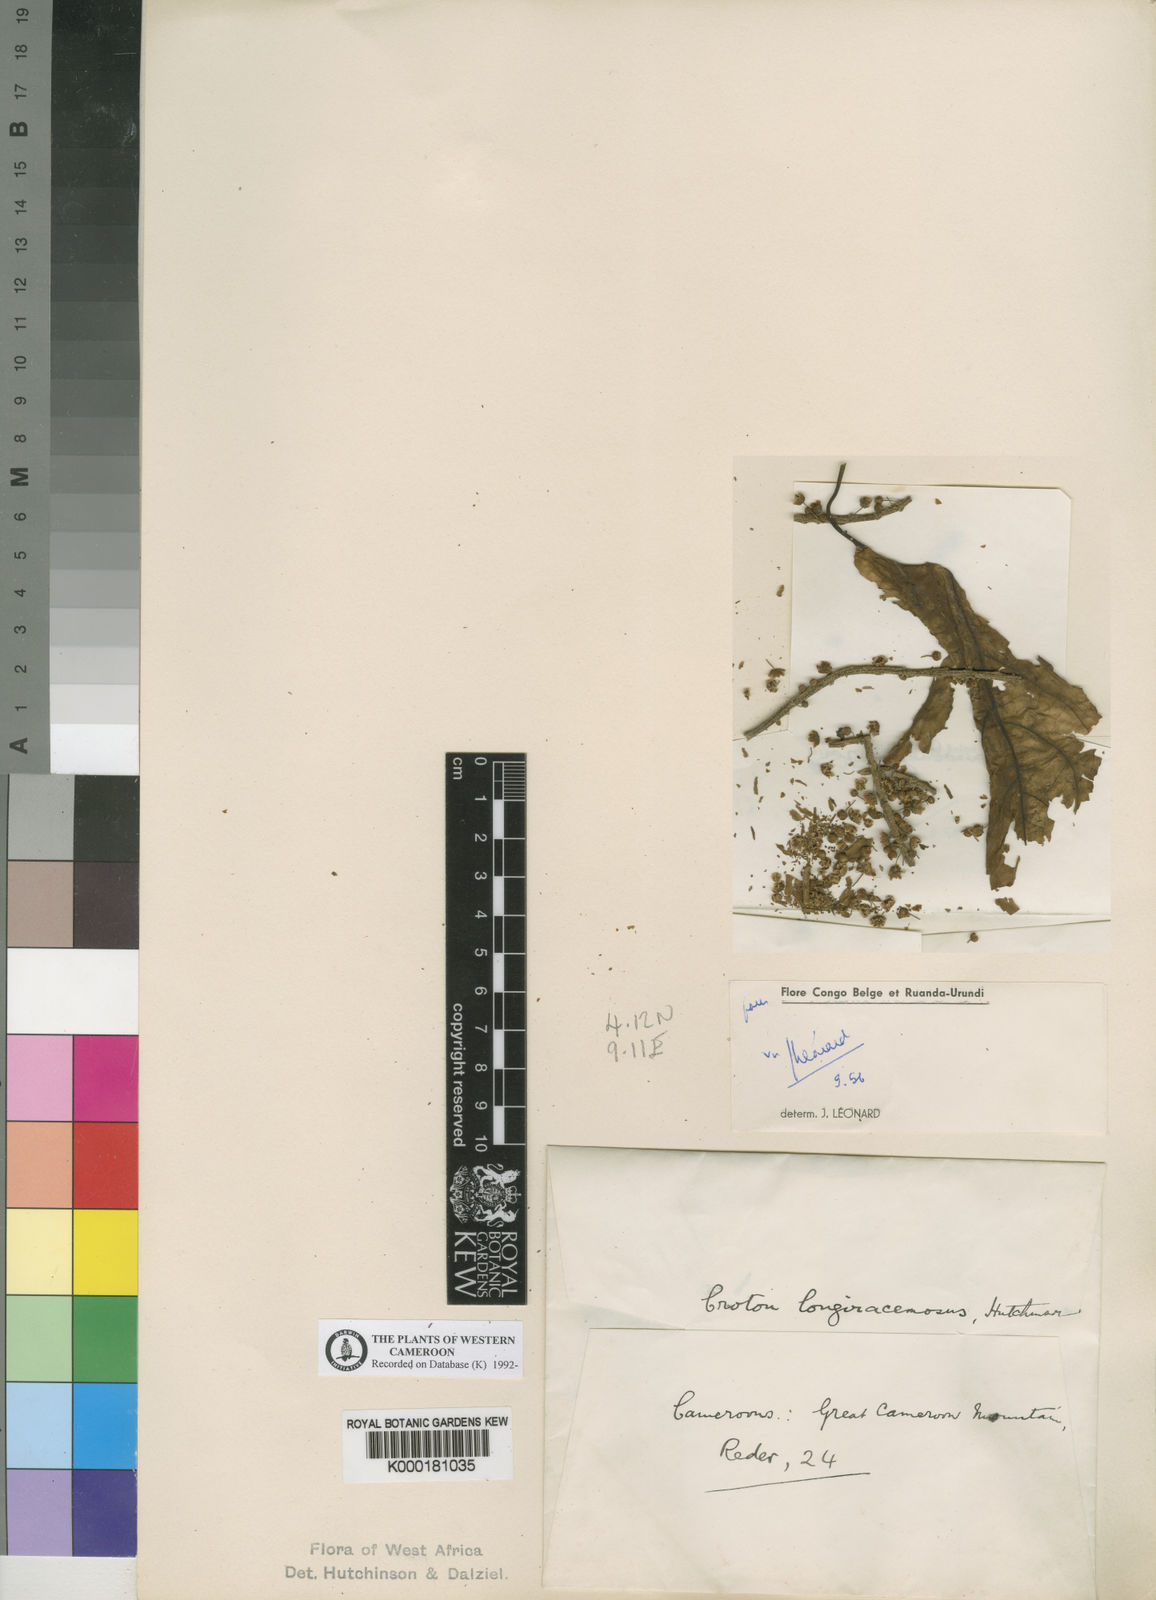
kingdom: Plantae
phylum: Tracheophyta
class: Magnoliopsida
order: Malpighiales
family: Euphorbiaceae
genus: Croton
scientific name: Croton longiracemosus
